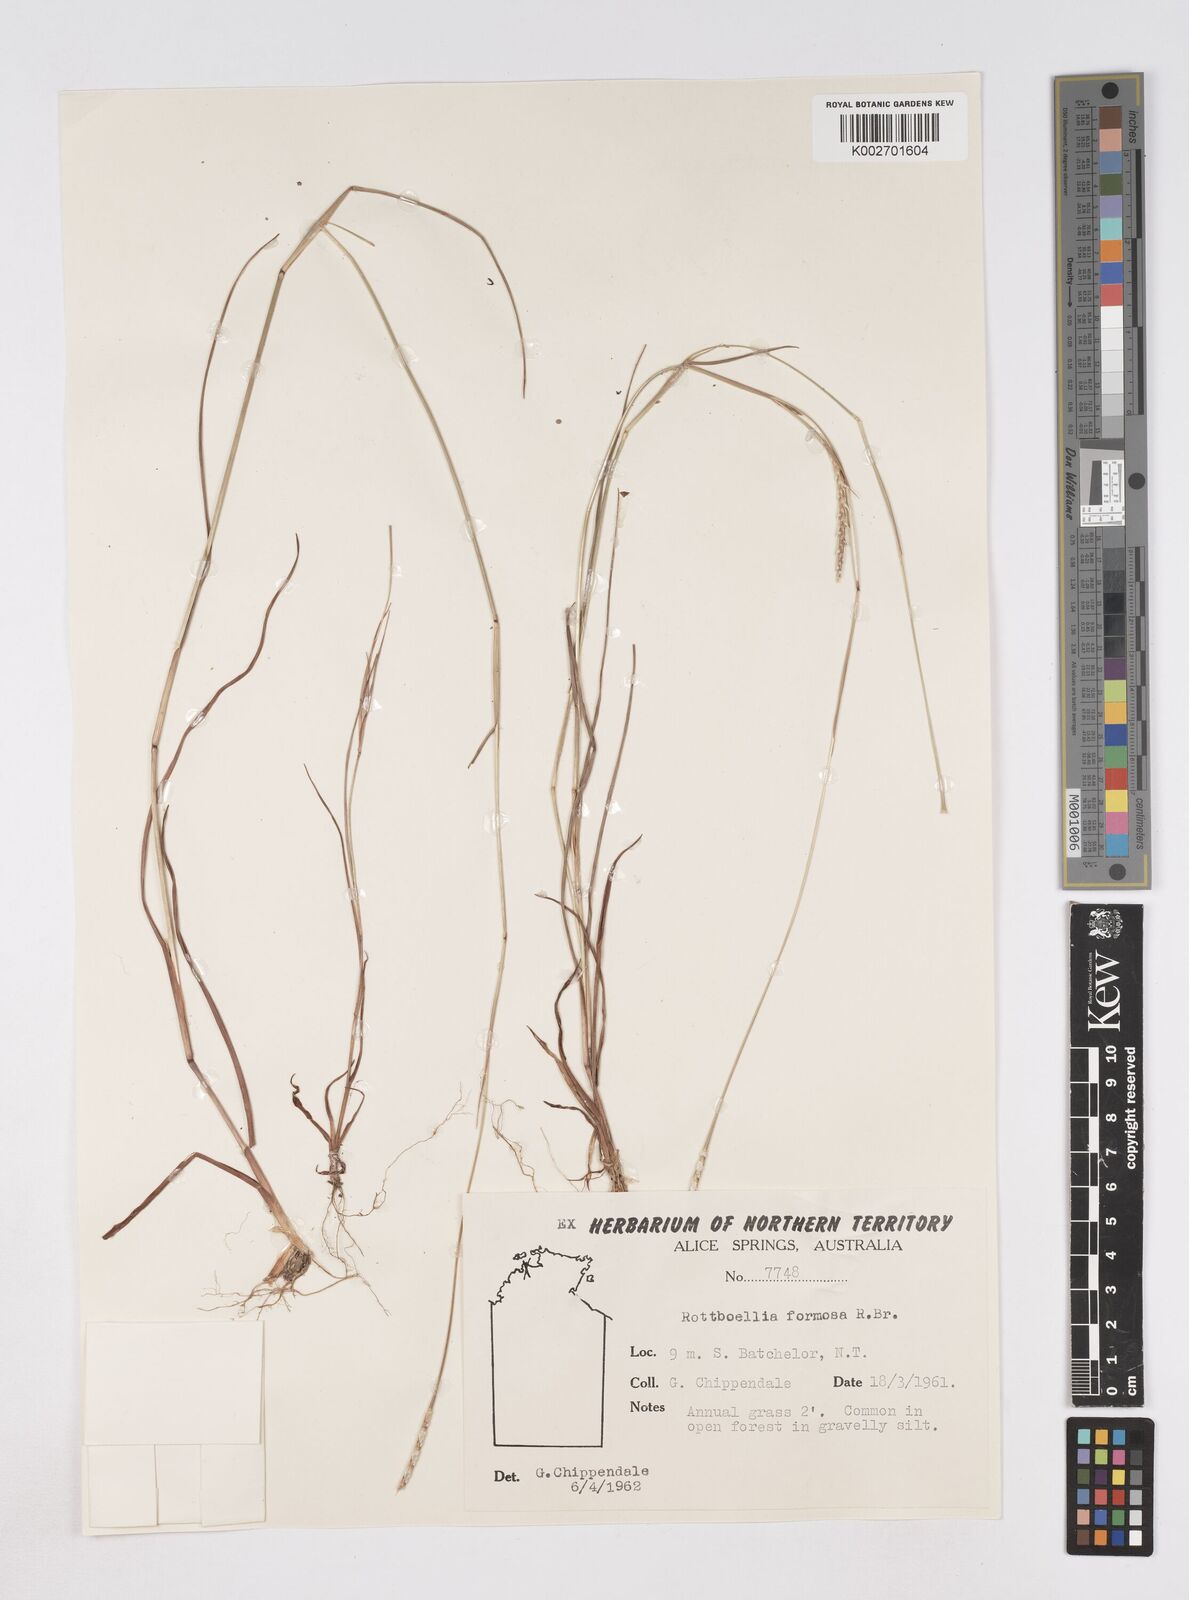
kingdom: Plantae
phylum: Tracheophyta
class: Liliopsida
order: Poales
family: Poaceae
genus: Heteropholis
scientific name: Heteropholis
